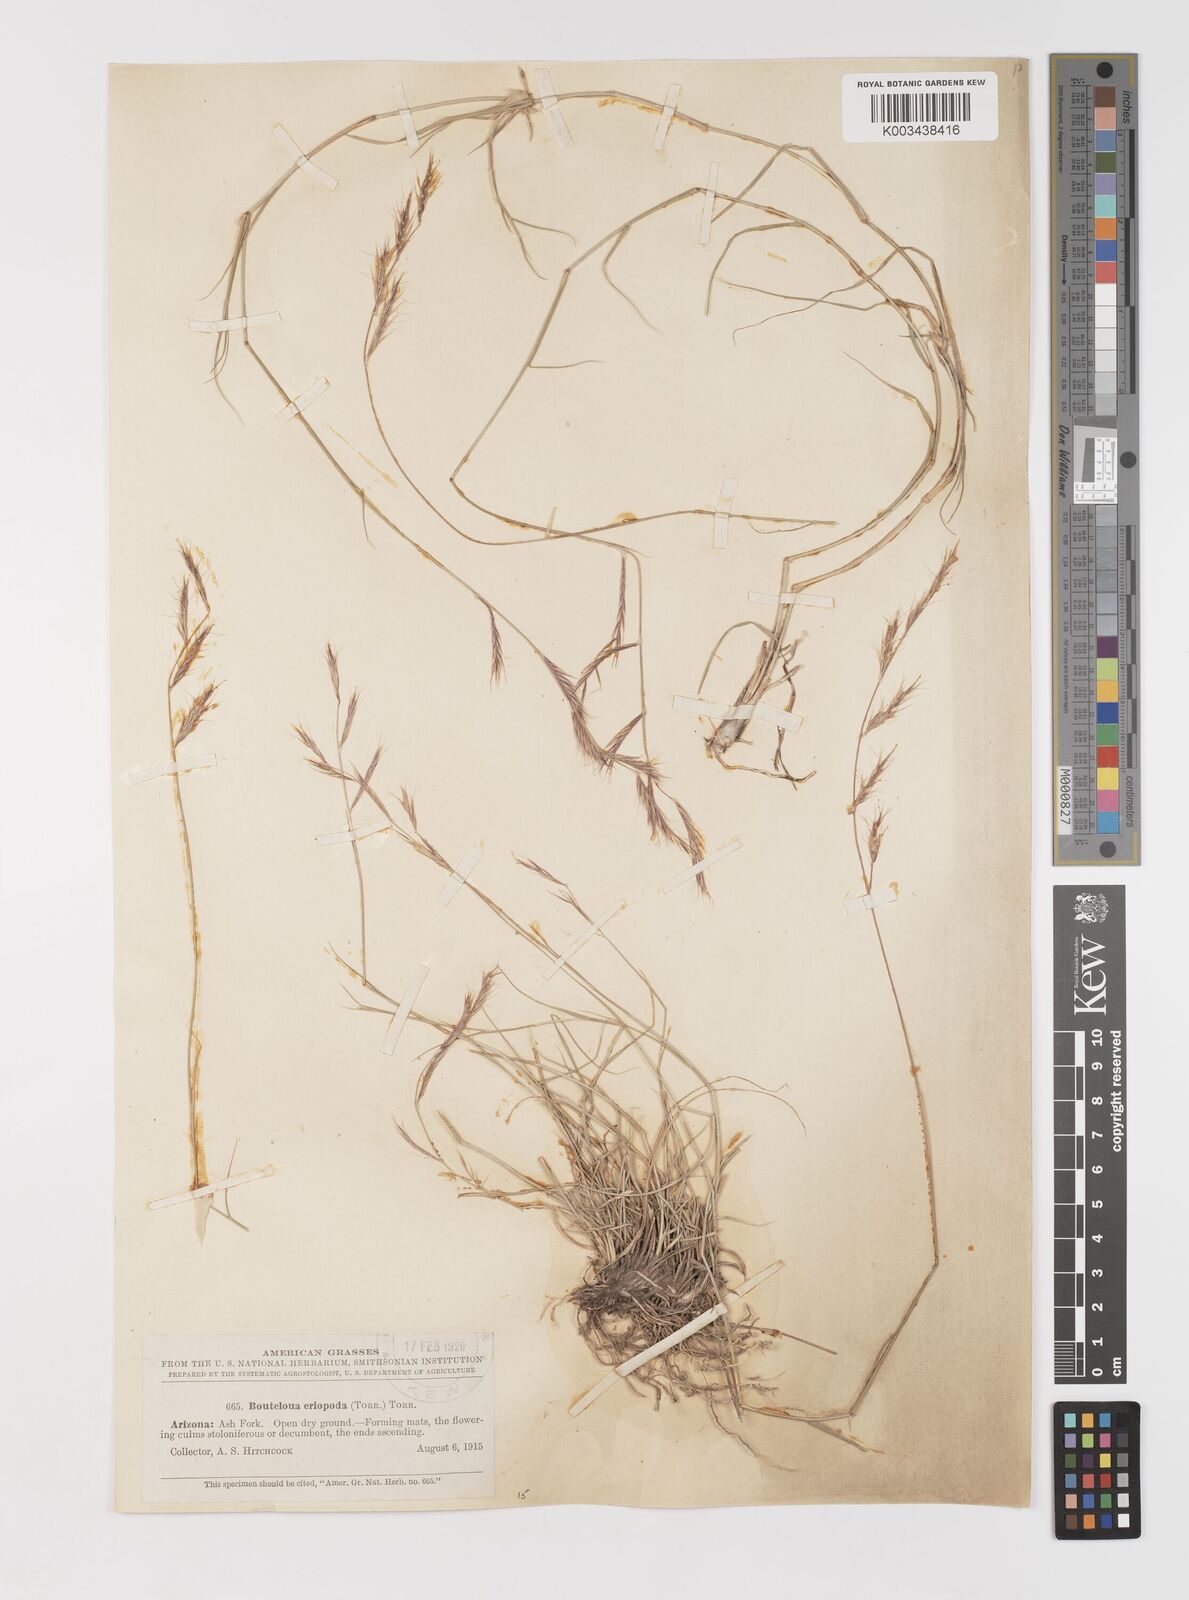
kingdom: Plantae
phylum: Tracheophyta
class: Liliopsida
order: Poales
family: Poaceae
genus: Bouteloua
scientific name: Bouteloua eriopoda
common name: Woolly foot grama
